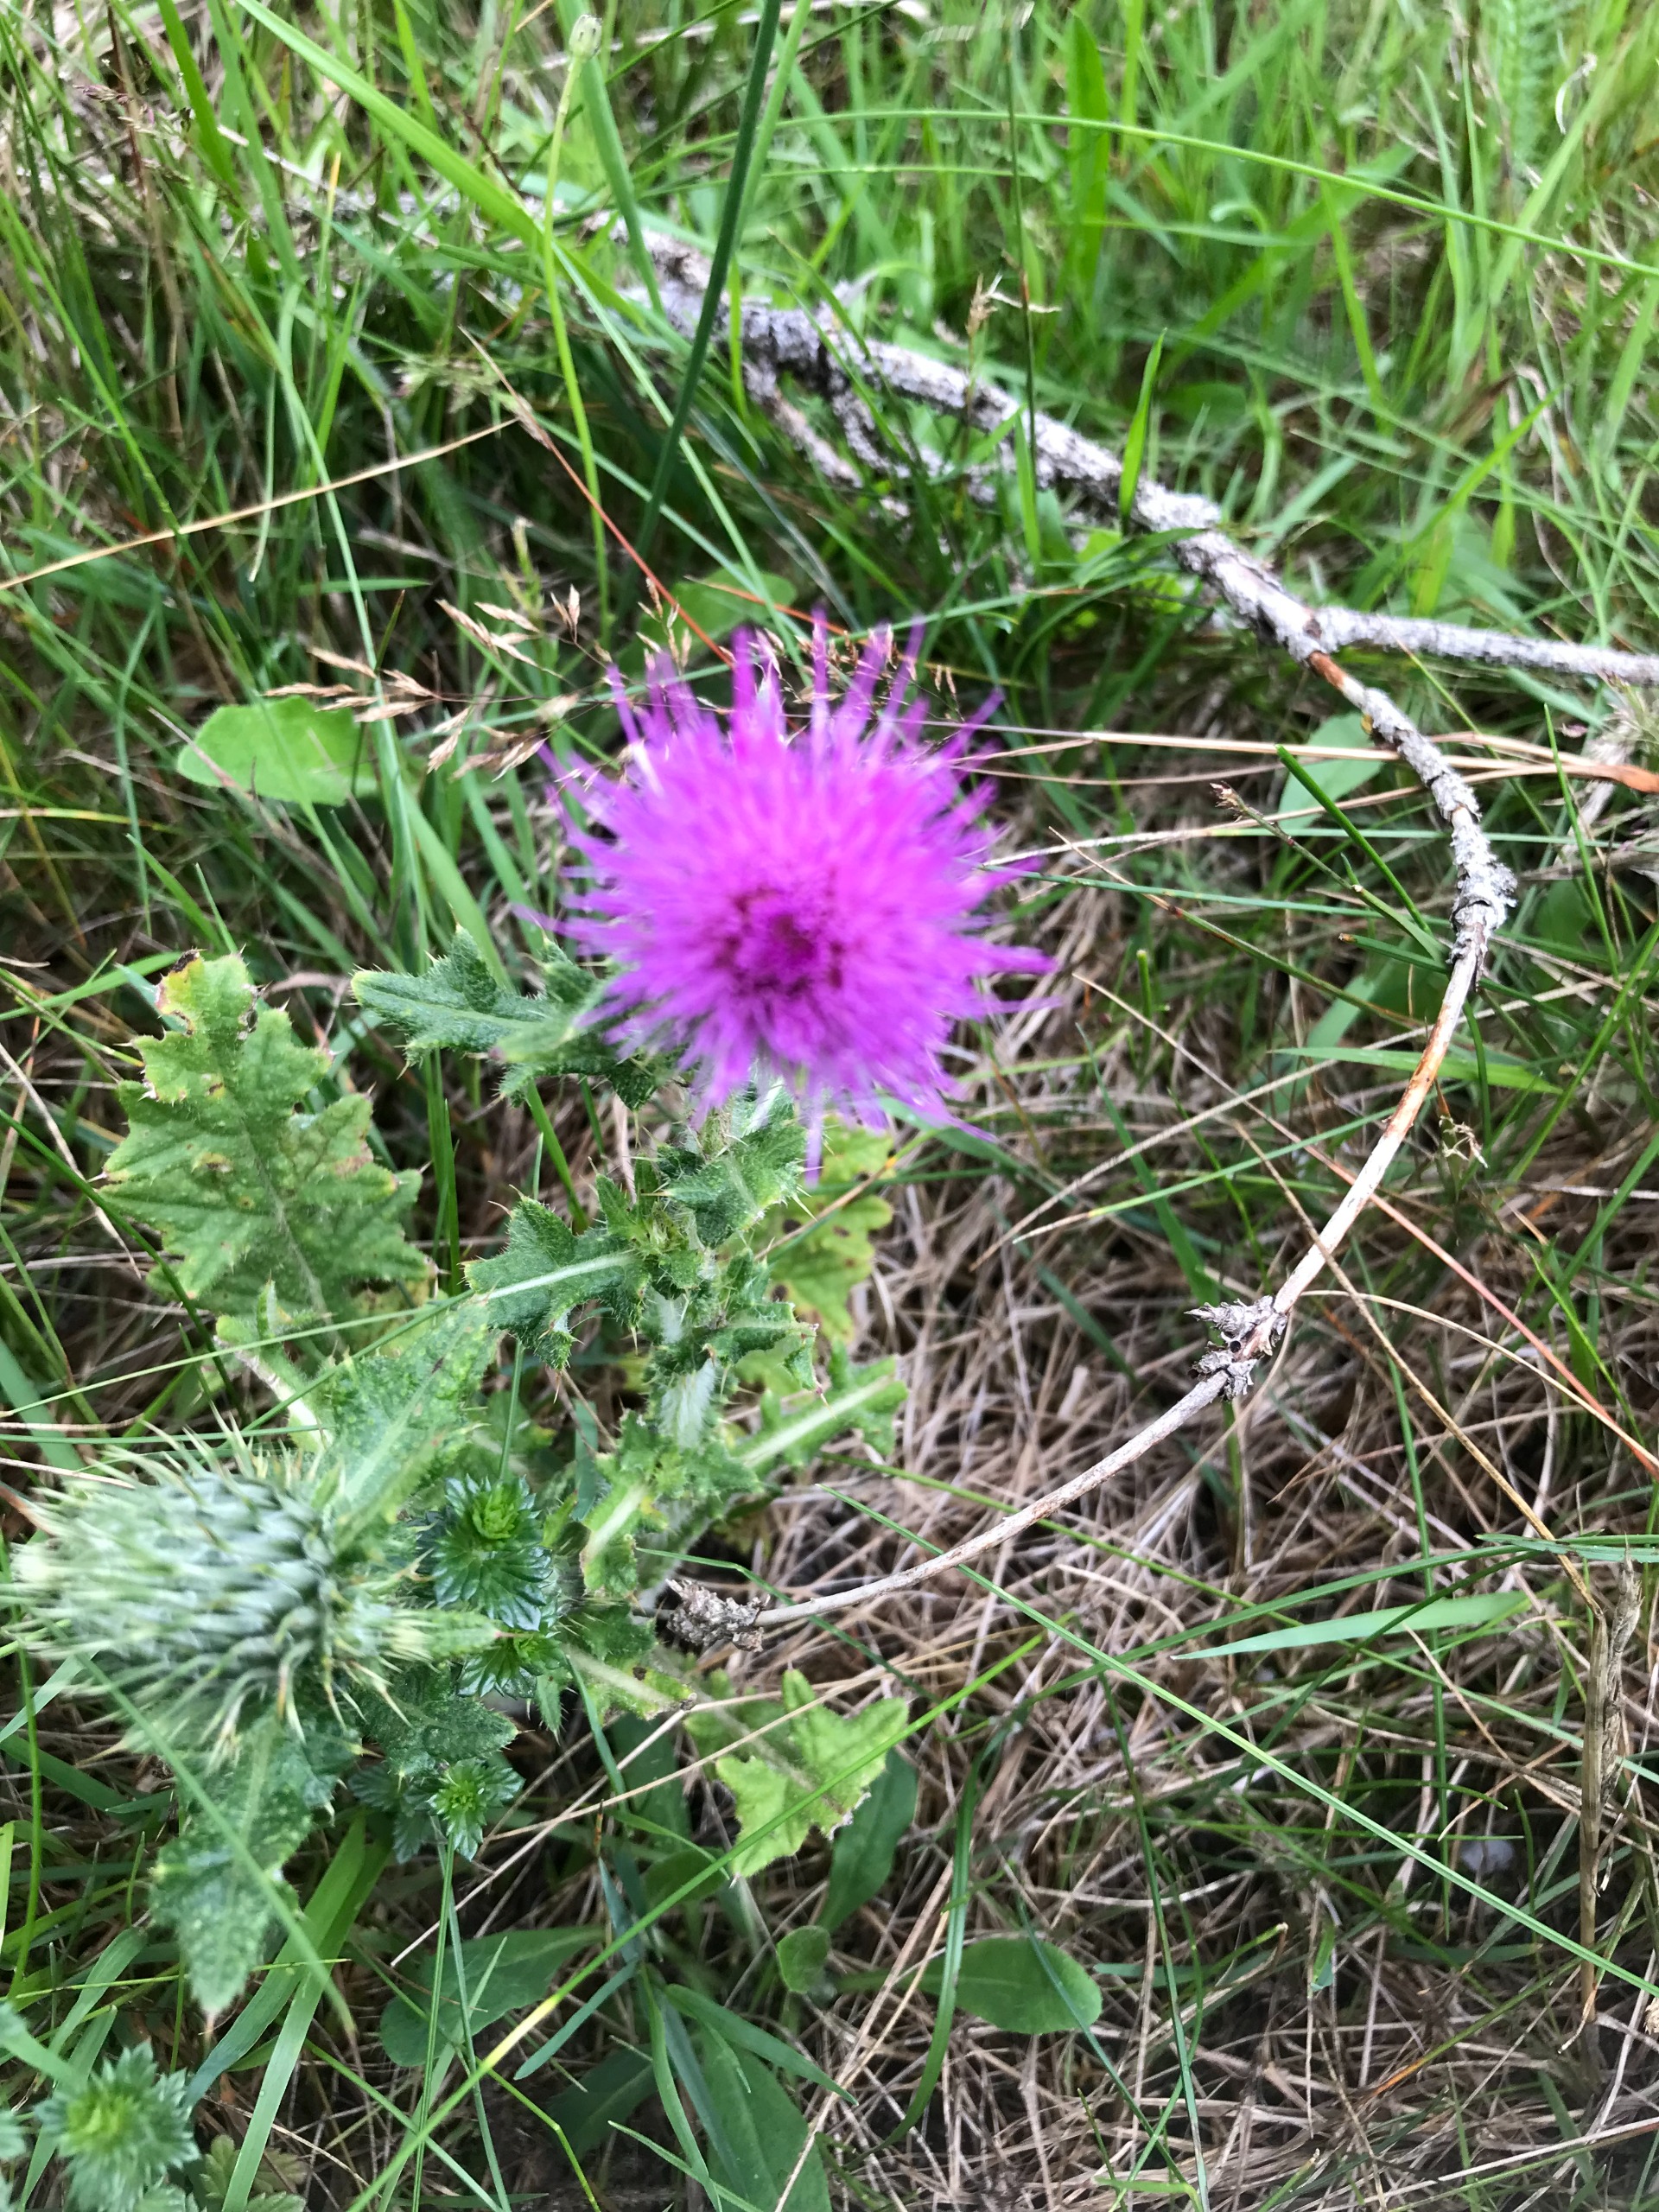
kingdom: Plantae
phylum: Tracheophyta
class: Magnoliopsida
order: Asterales
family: Asteraceae
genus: Cirsium
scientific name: Cirsium vulgare
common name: Horse-tidsel
